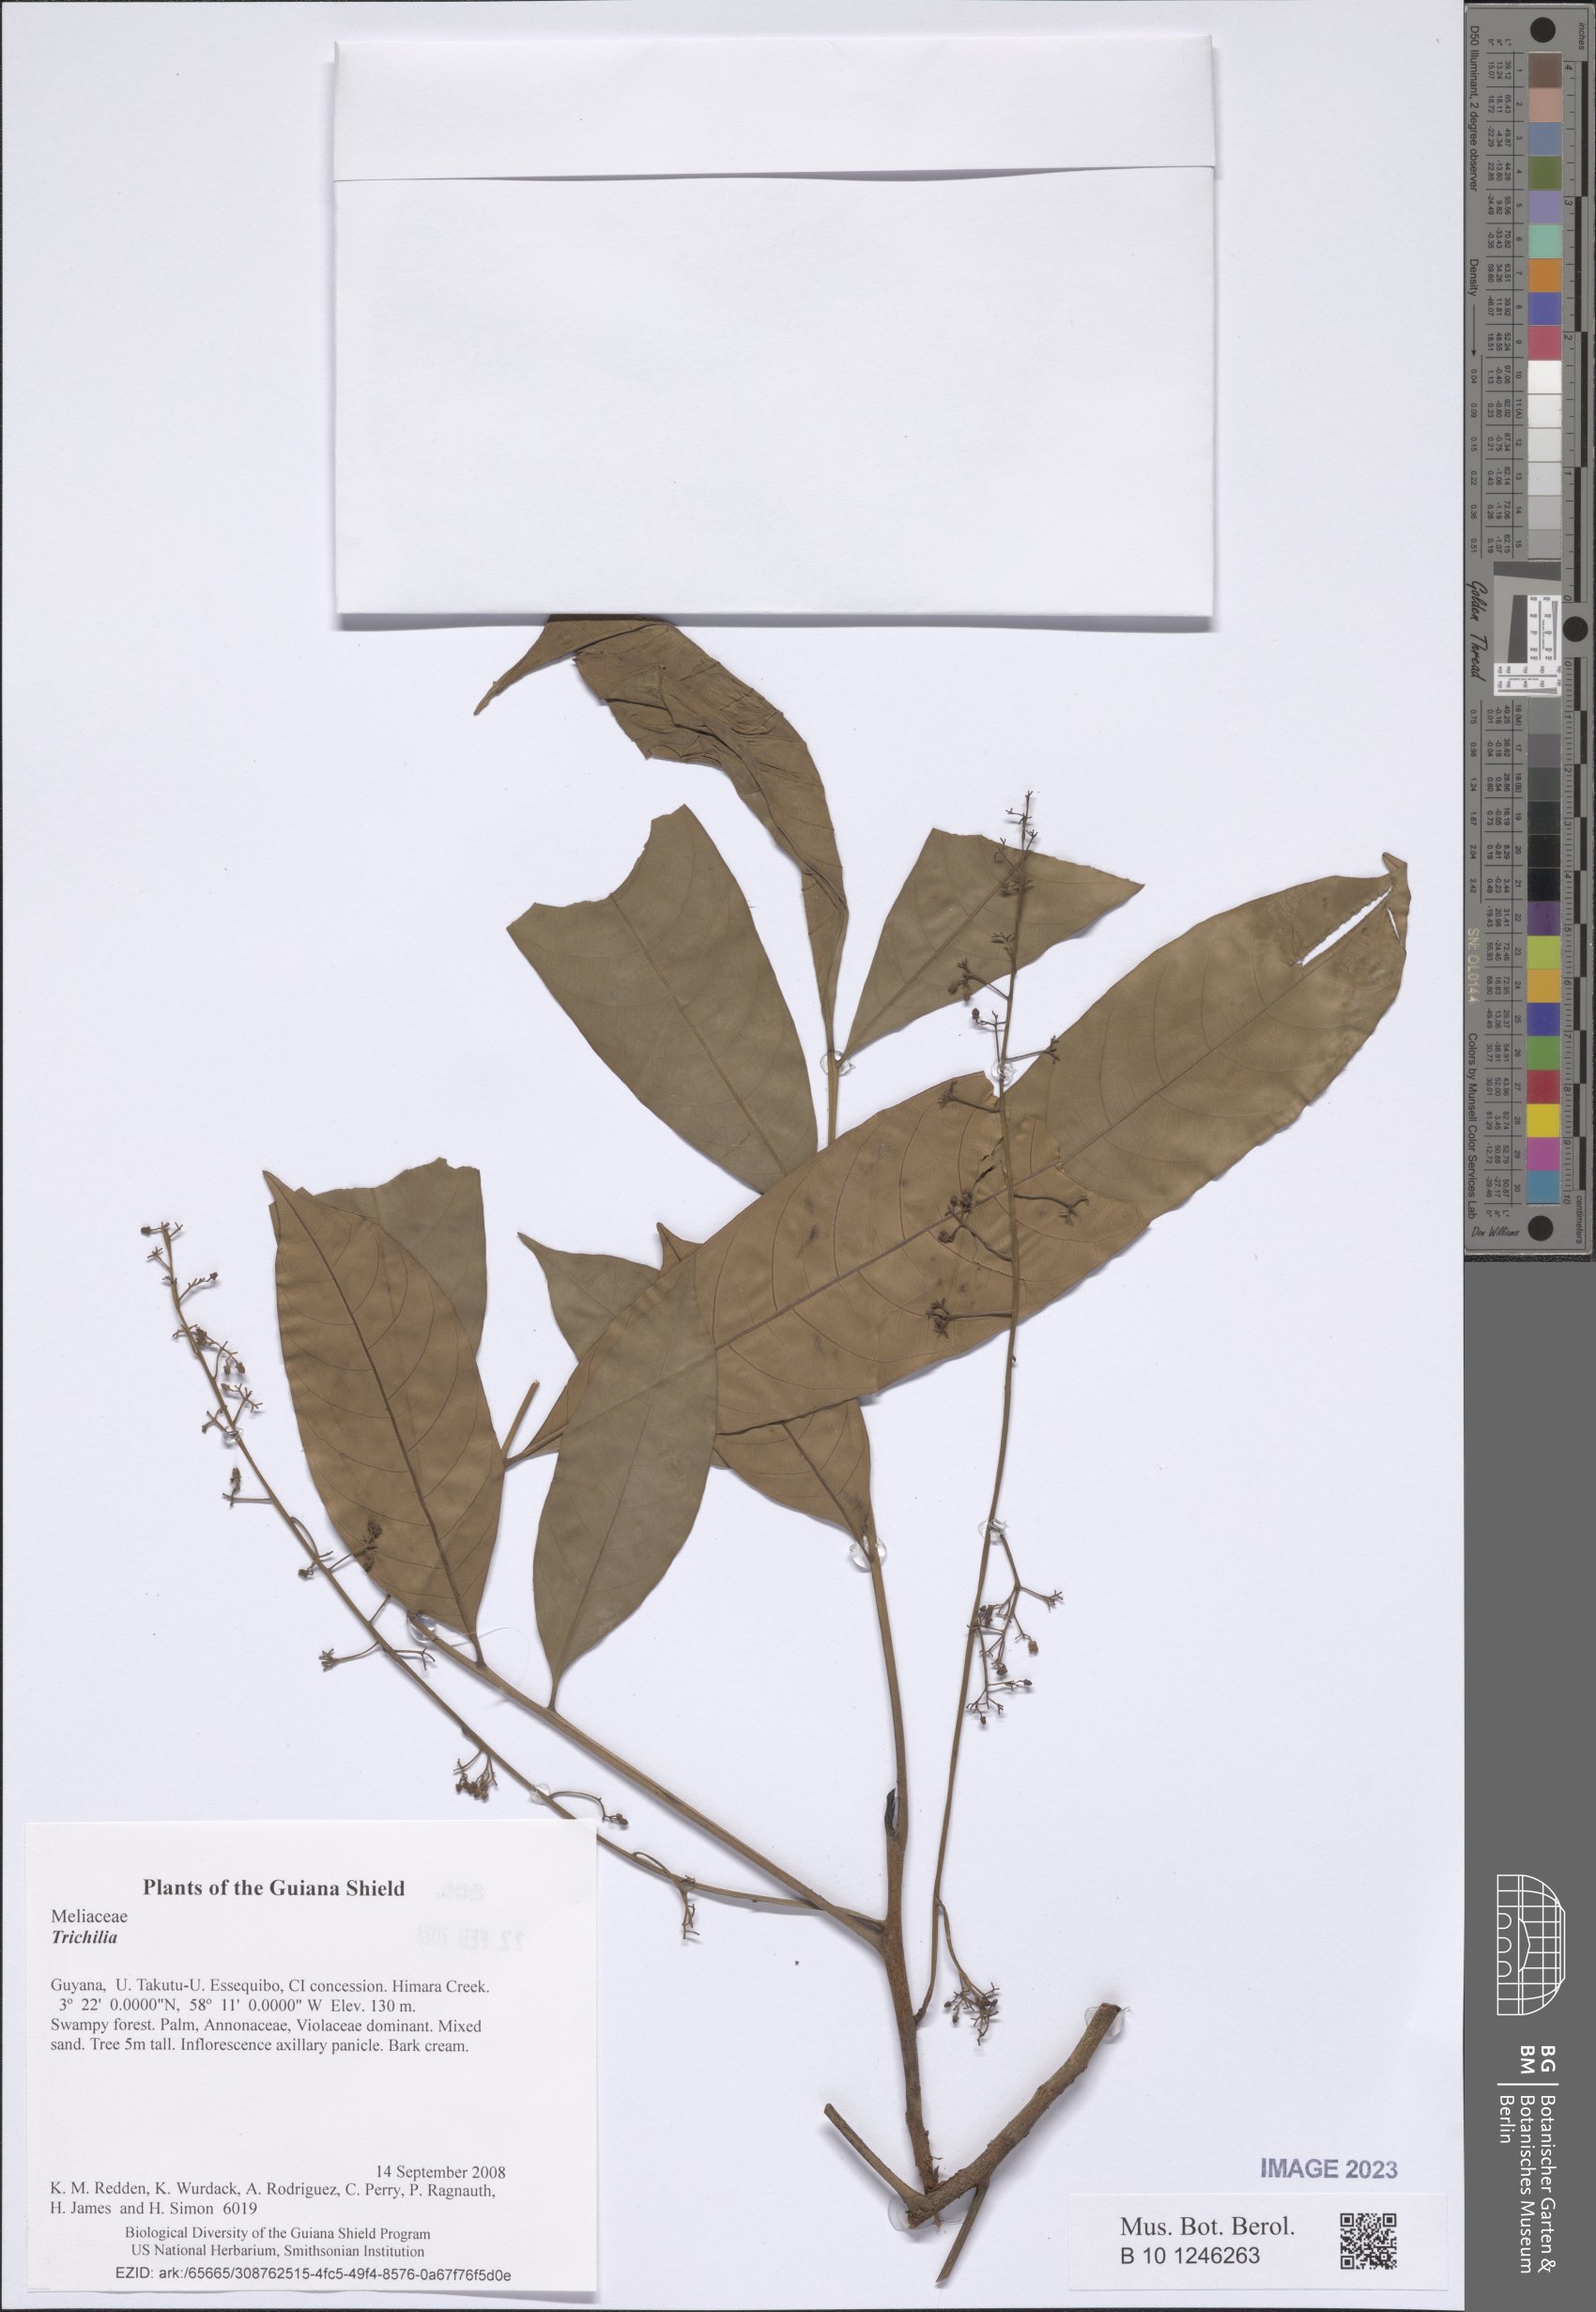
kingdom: Plantae
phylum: Tracheophyta
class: Magnoliopsida
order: Sapindales
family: Meliaceae
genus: Trichilia
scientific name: Trichilia
